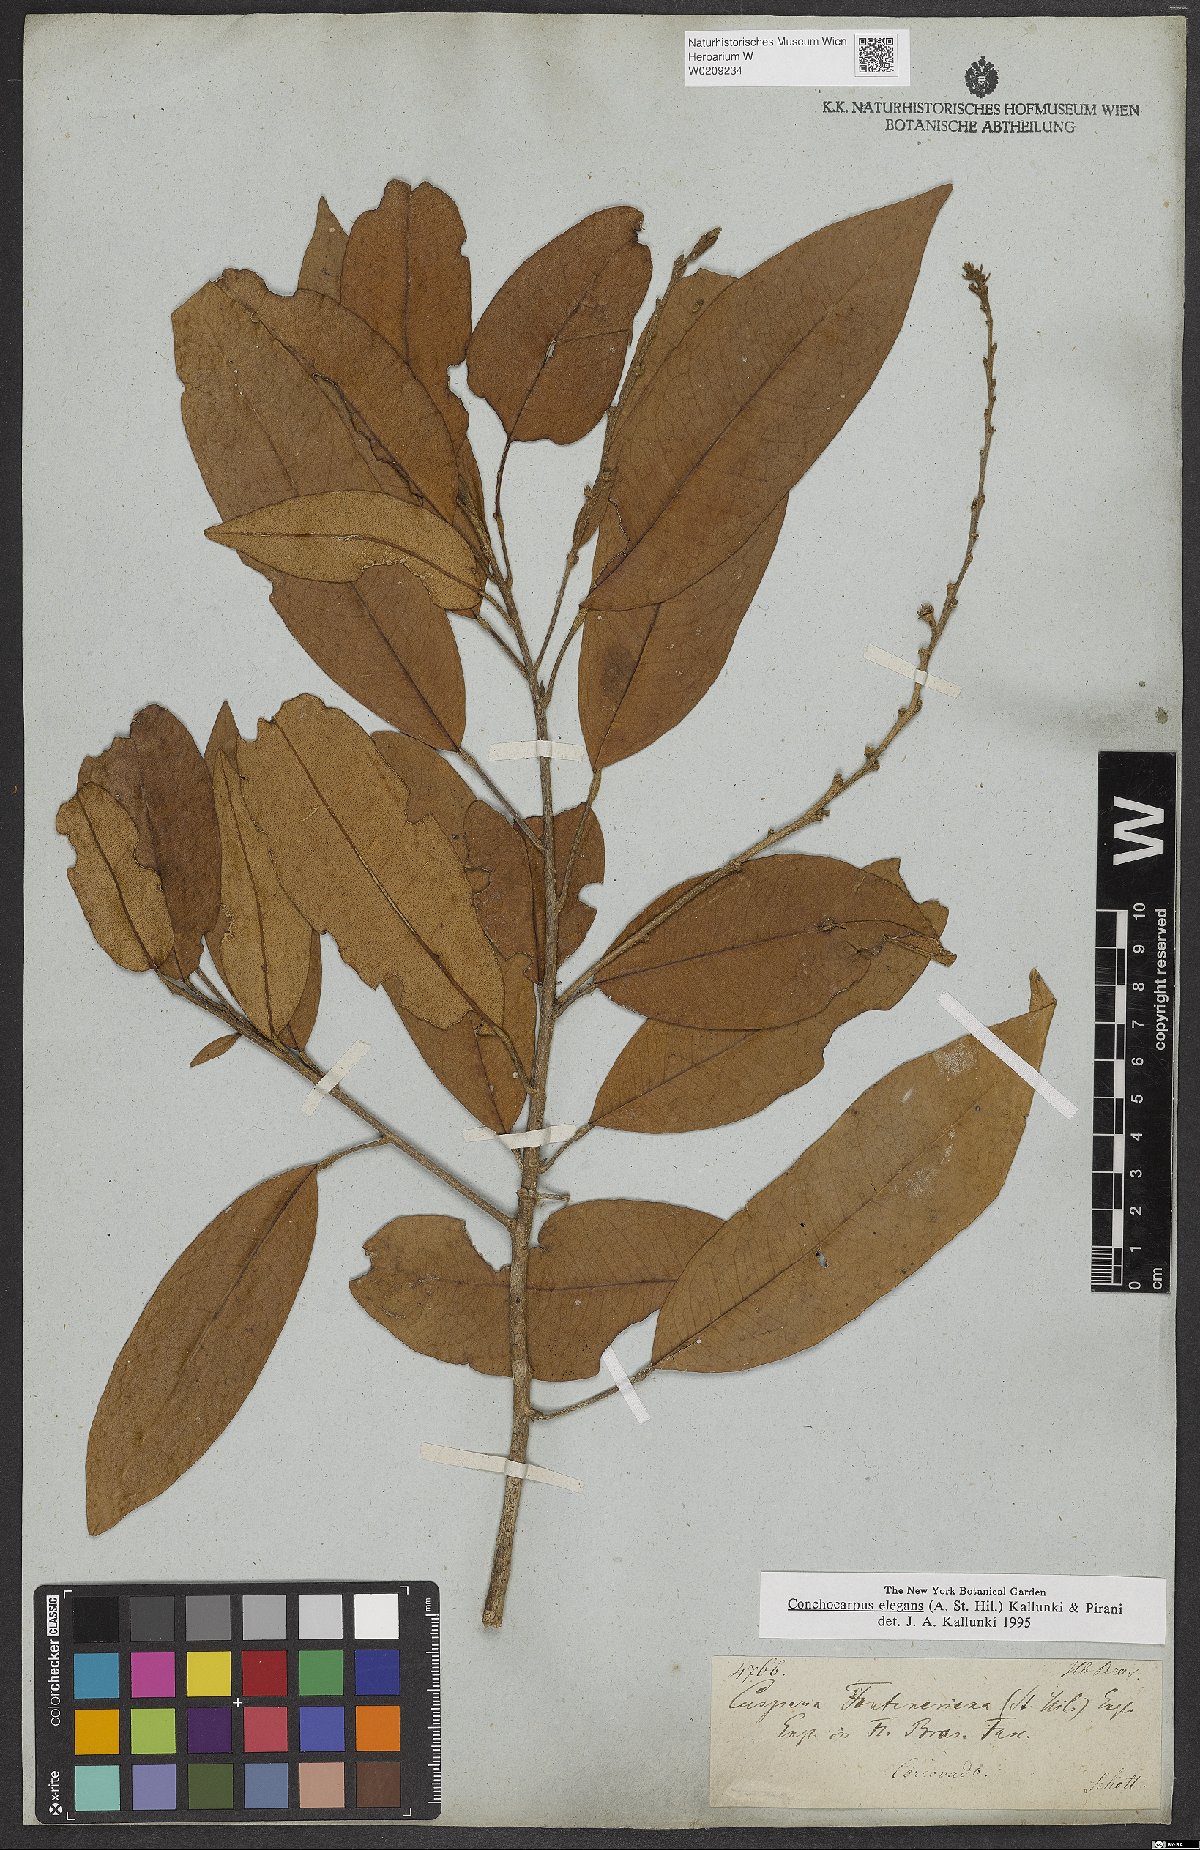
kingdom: Plantae
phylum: Tracheophyta
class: Magnoliopsida
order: Sapindales
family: Rutaceae
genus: Conchocarpus
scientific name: Conchocarpus elegans
